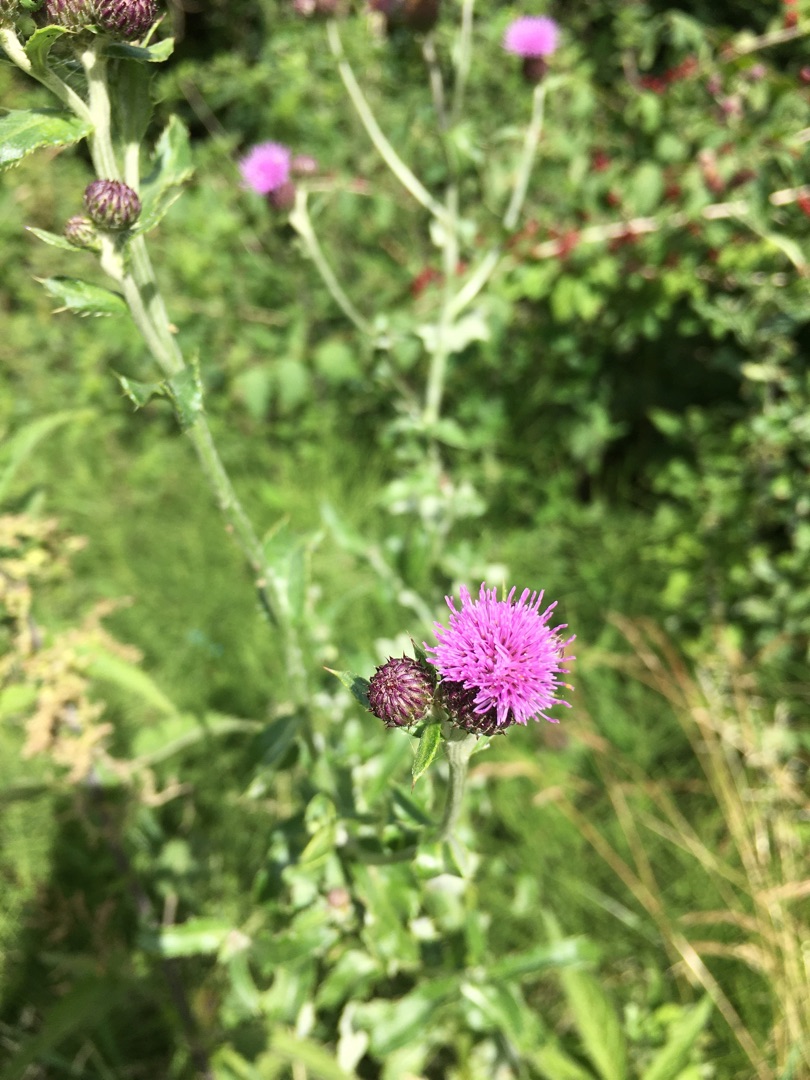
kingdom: Plantae
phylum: Tracheophyta
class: Magnoliopsida
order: Asterales
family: Asteraceae
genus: Cirsium
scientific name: Cirsium arvense
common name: Ager-tidsel
